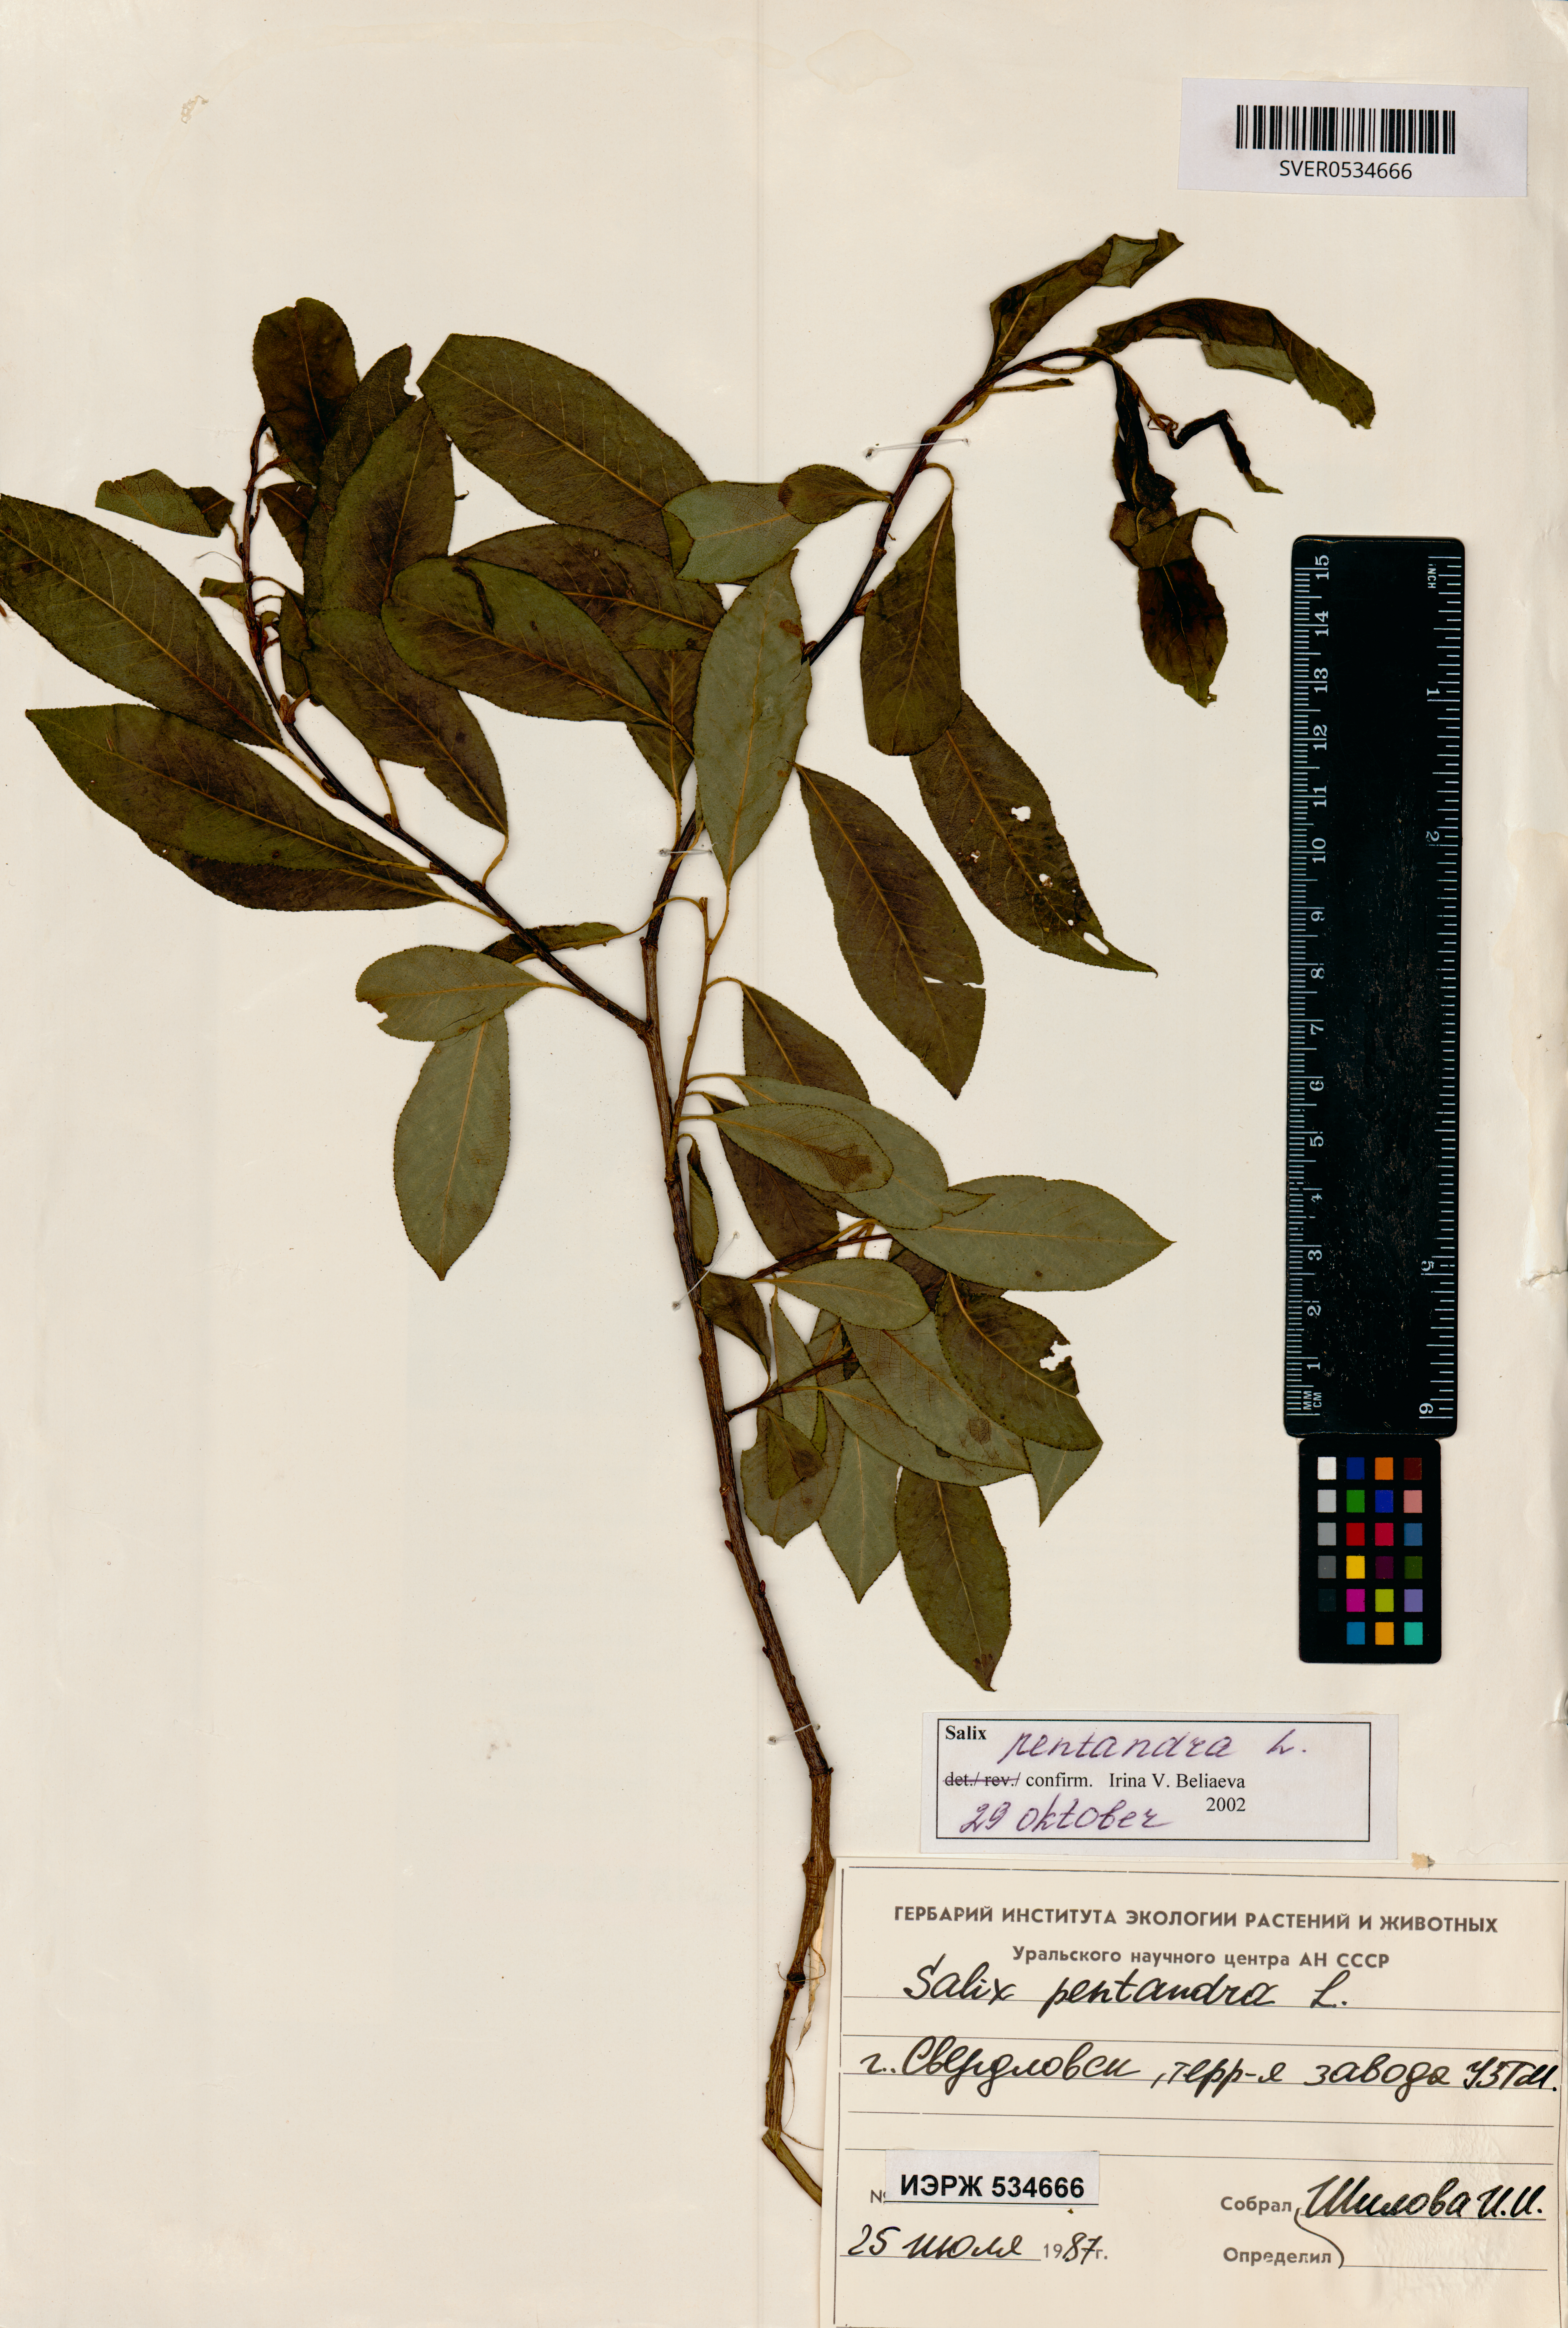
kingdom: Plantae
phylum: Tracheophyta
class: Magnoliopsida
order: Malpighiales
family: Salicaceae
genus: Salix
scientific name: Salix pentandra
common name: Bay willow
